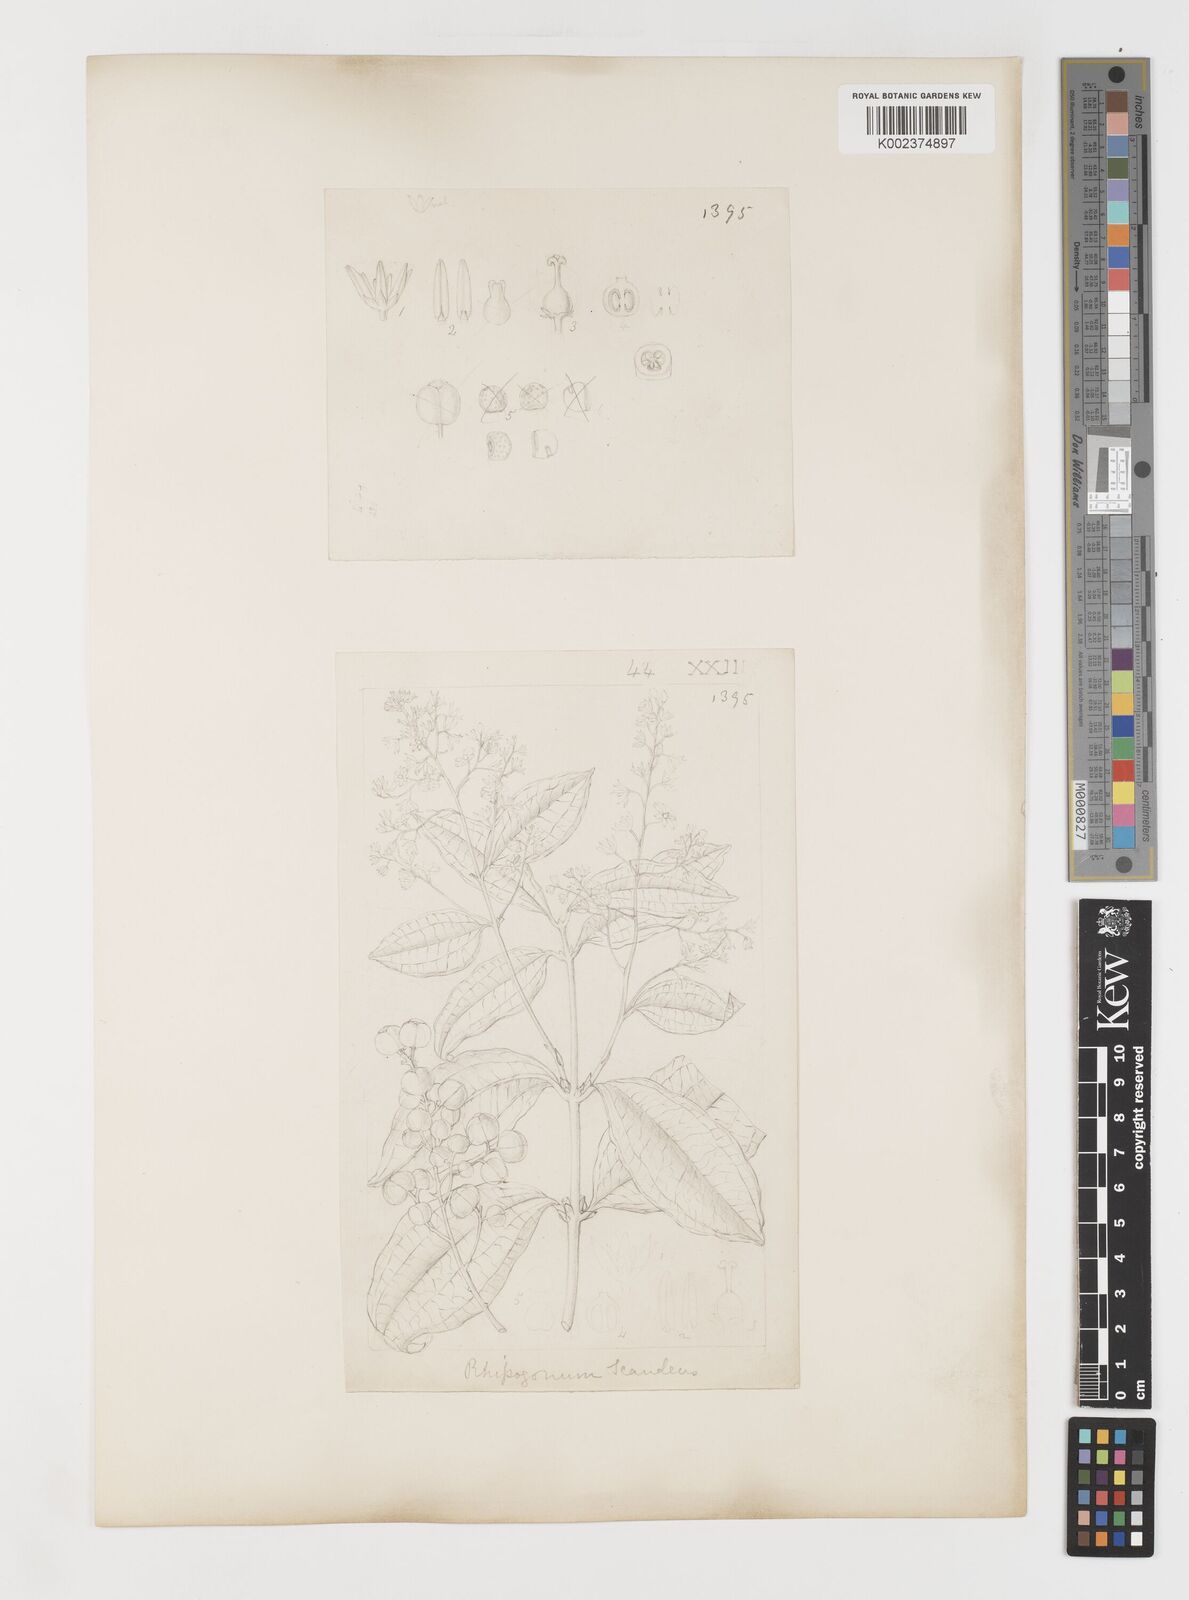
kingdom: Plantae
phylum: Tracheophyta
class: Liliopsida
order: Liliales
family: Ripogonaceae
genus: Ripogonum
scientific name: Ripogonum scandens
